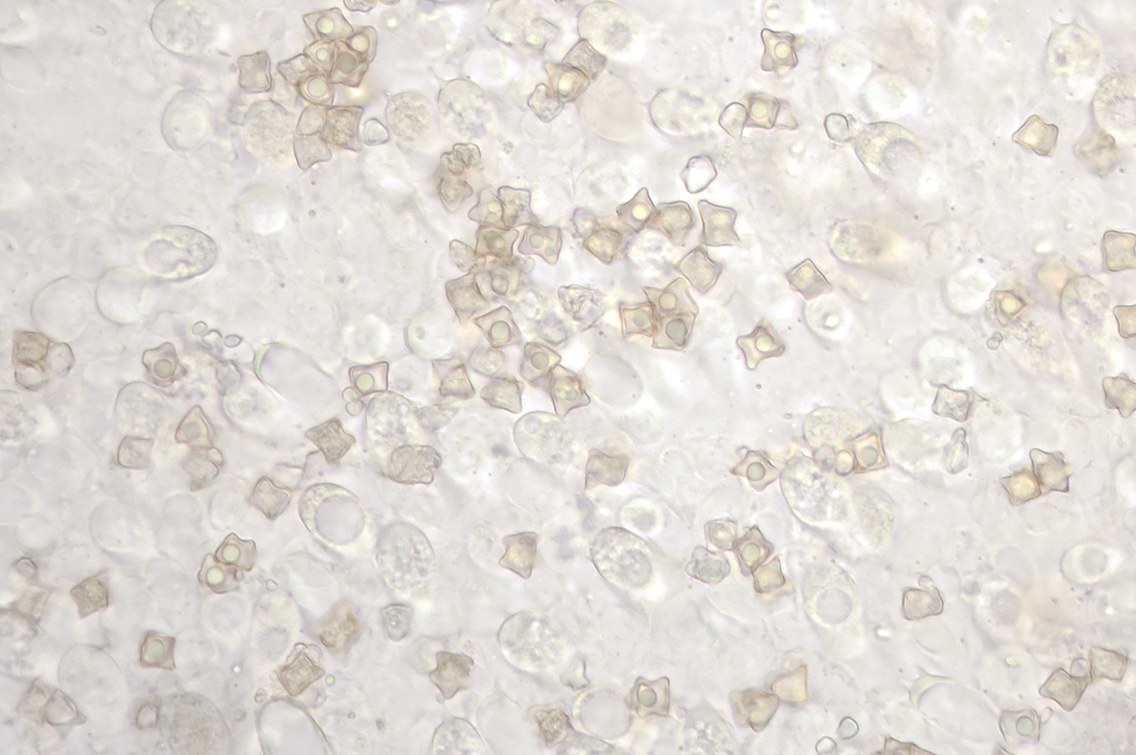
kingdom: Fungi
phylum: Basidiomycota
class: Agaricomycetes
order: Agaricales
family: Entolomataceae
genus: Entoloma
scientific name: Entoloma conferendum
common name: stjernesporet rødblad
